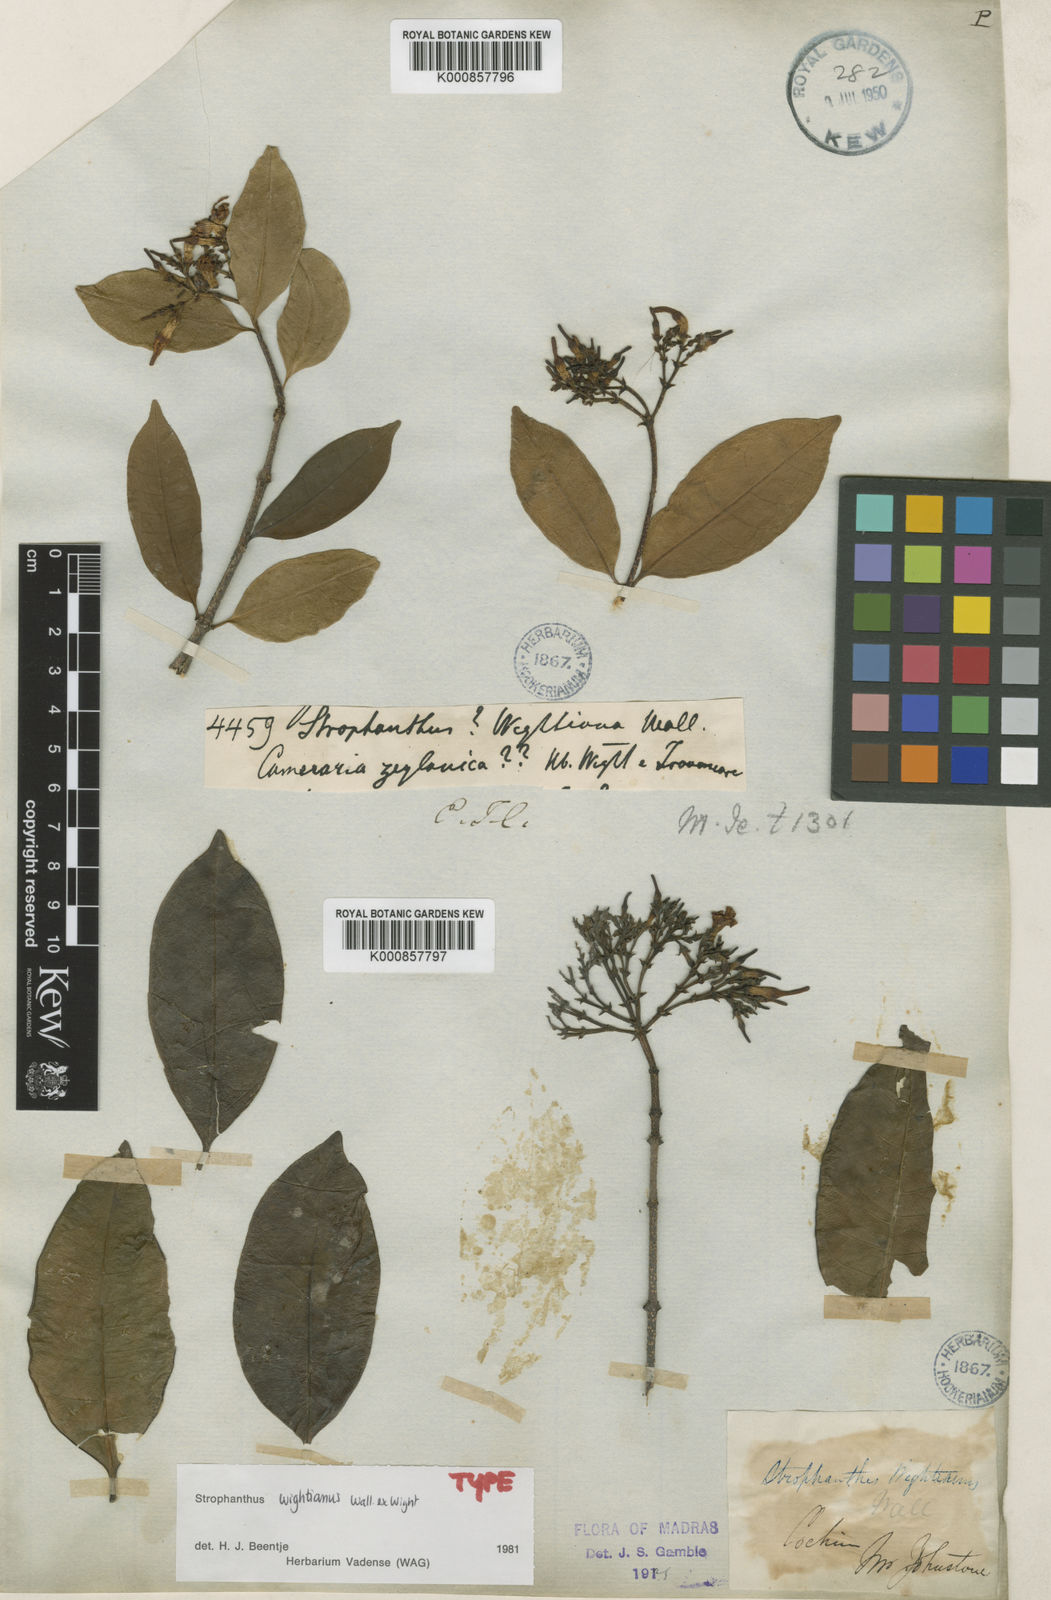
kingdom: Plantae
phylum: Tracheophyta
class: Magnoliopsida
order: Gentianales
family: Apocynaceae
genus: Strophanthus
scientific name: Strophanthus wightianus
